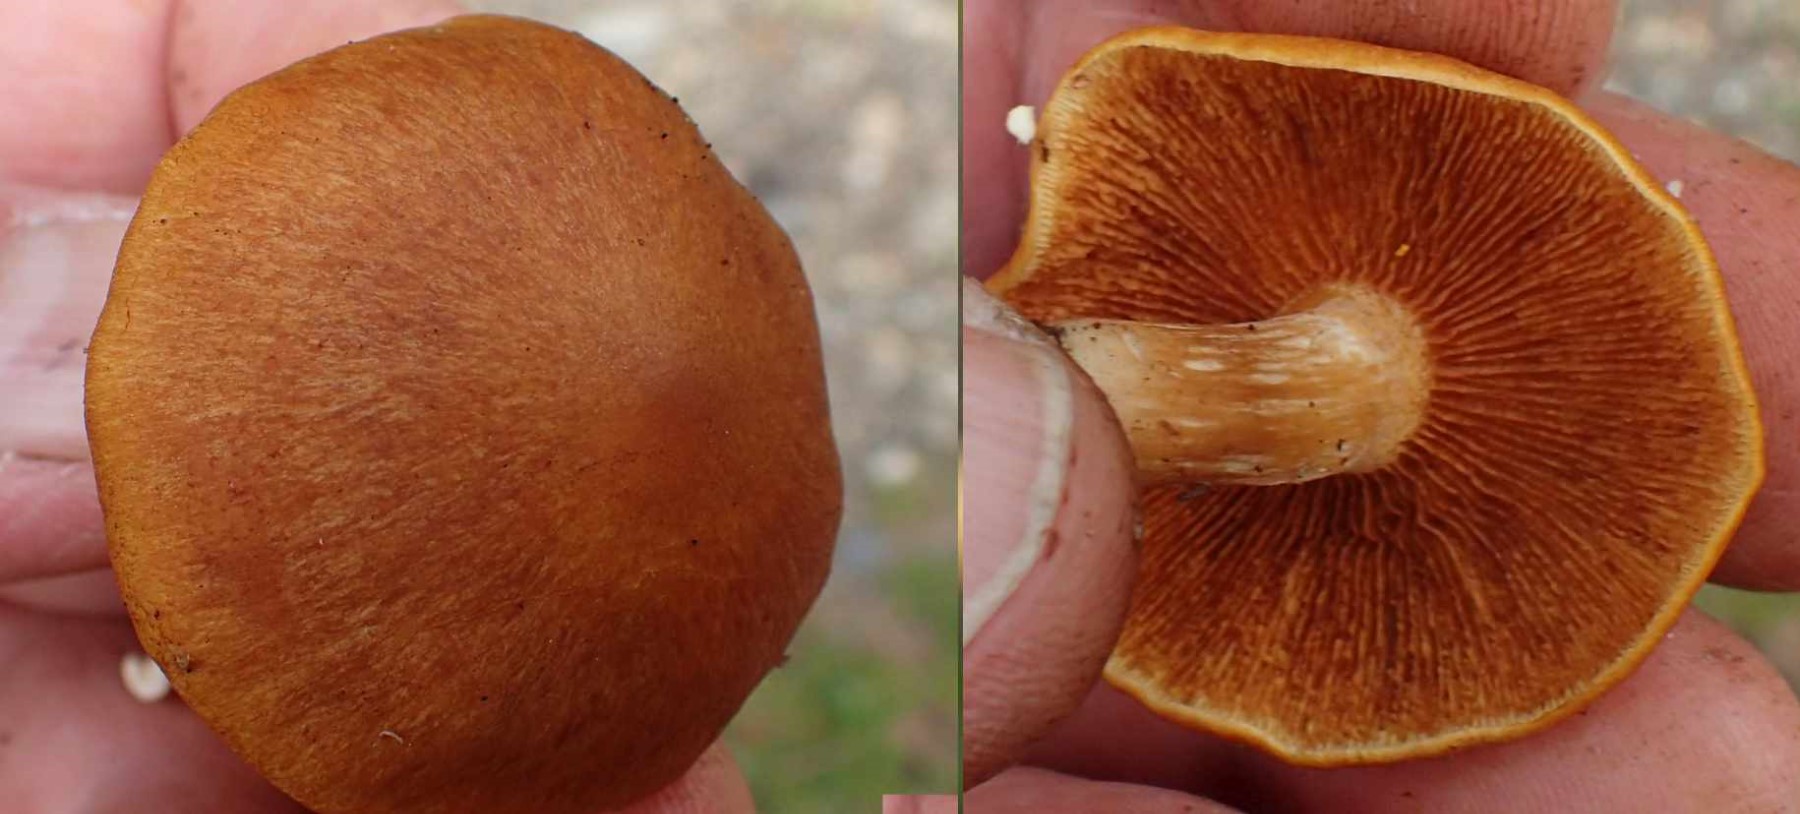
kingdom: Fungi
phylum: Basidiomycota
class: Agaricomycetes
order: Agaricales
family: Hymenogastraceae
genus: Gymnopilus
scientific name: Gymnopilus penetrans
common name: plettet flammehat
